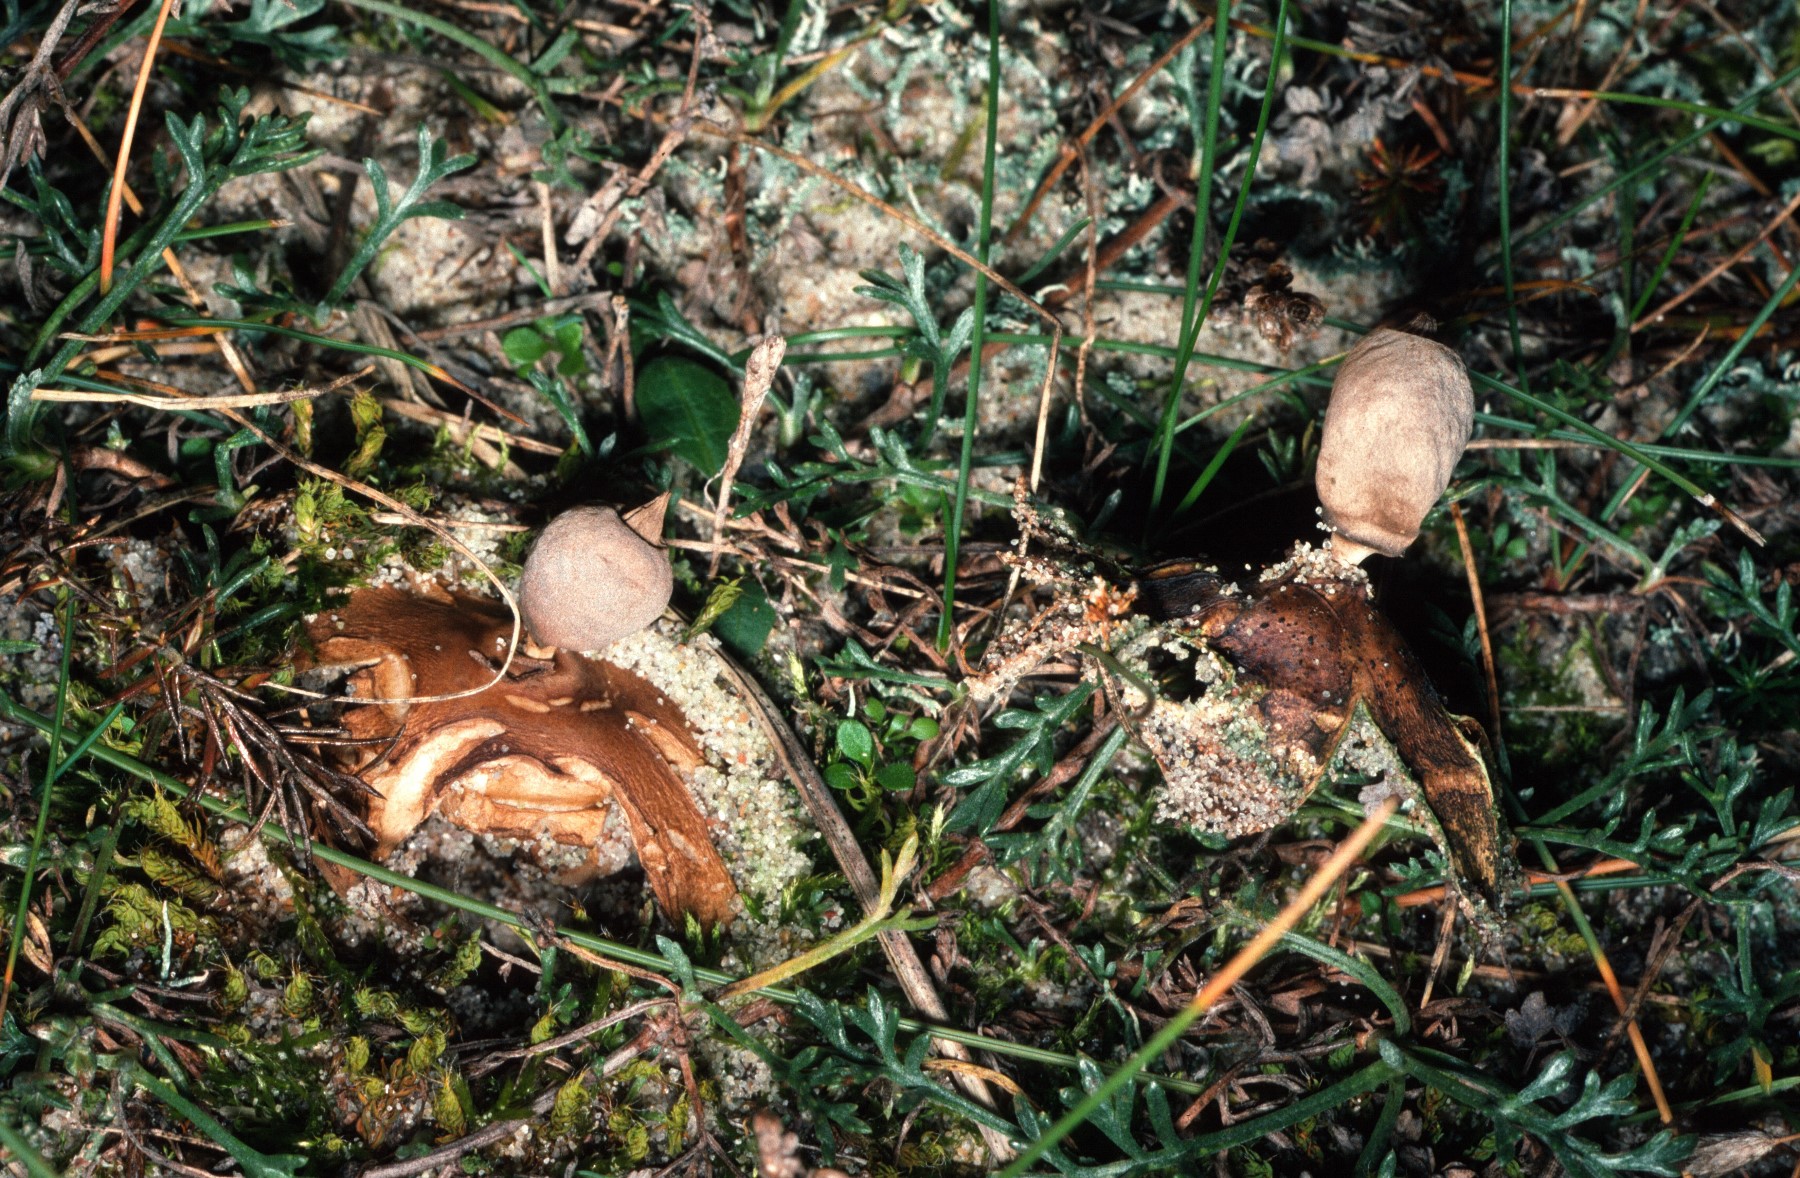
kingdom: Fungi
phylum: Basidiomycota
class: Agaricomycetes
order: Geastrales
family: Geastraceae
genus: Geastrum
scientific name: Geastrum striatum
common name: dværg-stjernebold
